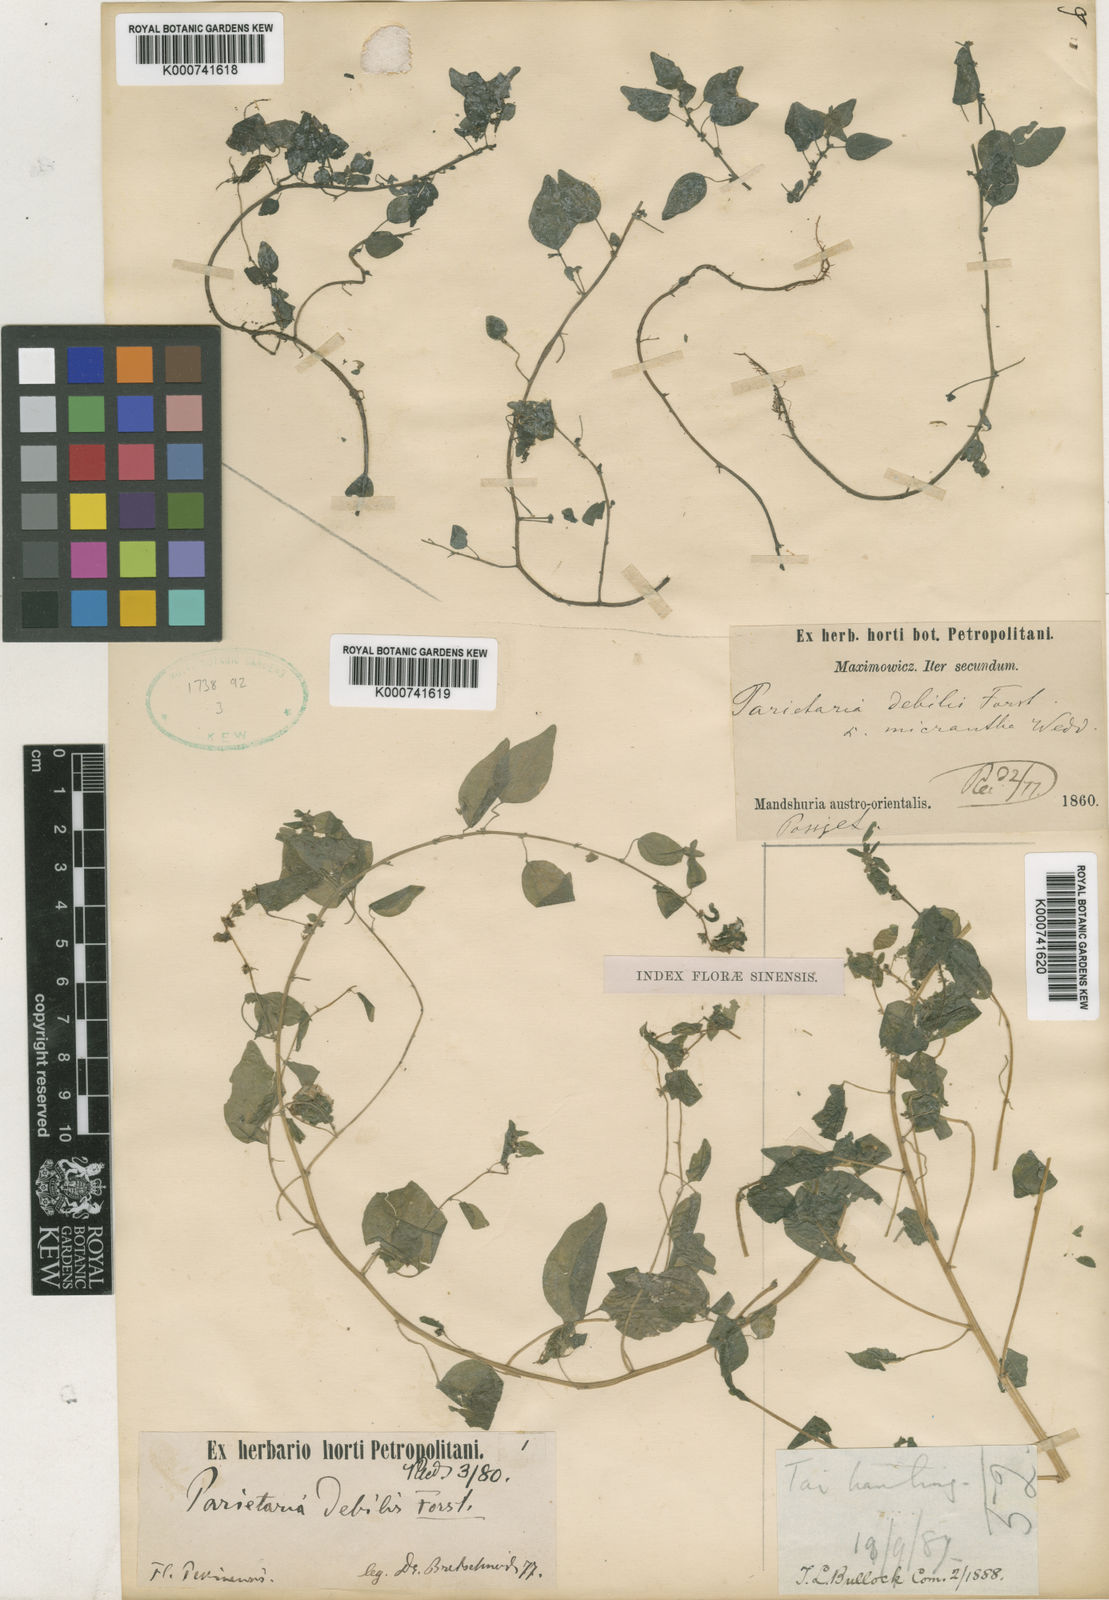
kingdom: Plantae
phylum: Tracheophyta
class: Magnoliopsida
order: Rosales
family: Urticaceae
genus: Parietaria
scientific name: Parietaria debilis
